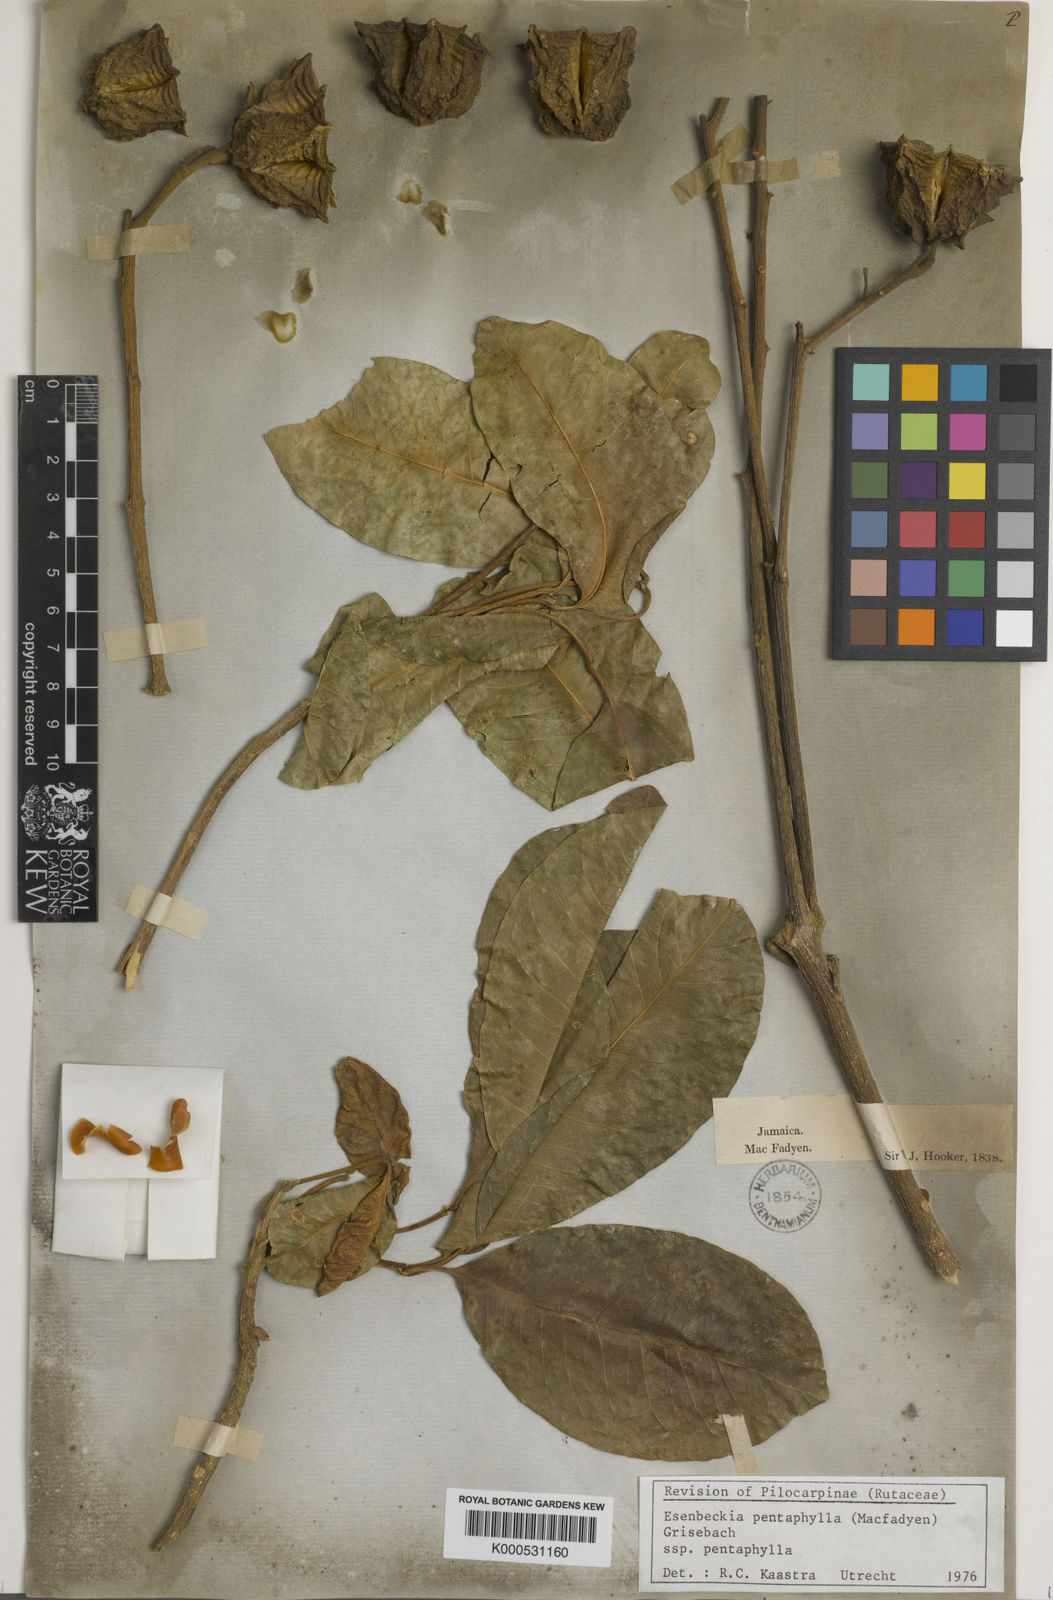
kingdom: Plantae
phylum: Tracheophyta
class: Magnoliopsida
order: Sapindales
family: Rutaceae
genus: Esenbeckia
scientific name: Esenbeckia pentaphylla
